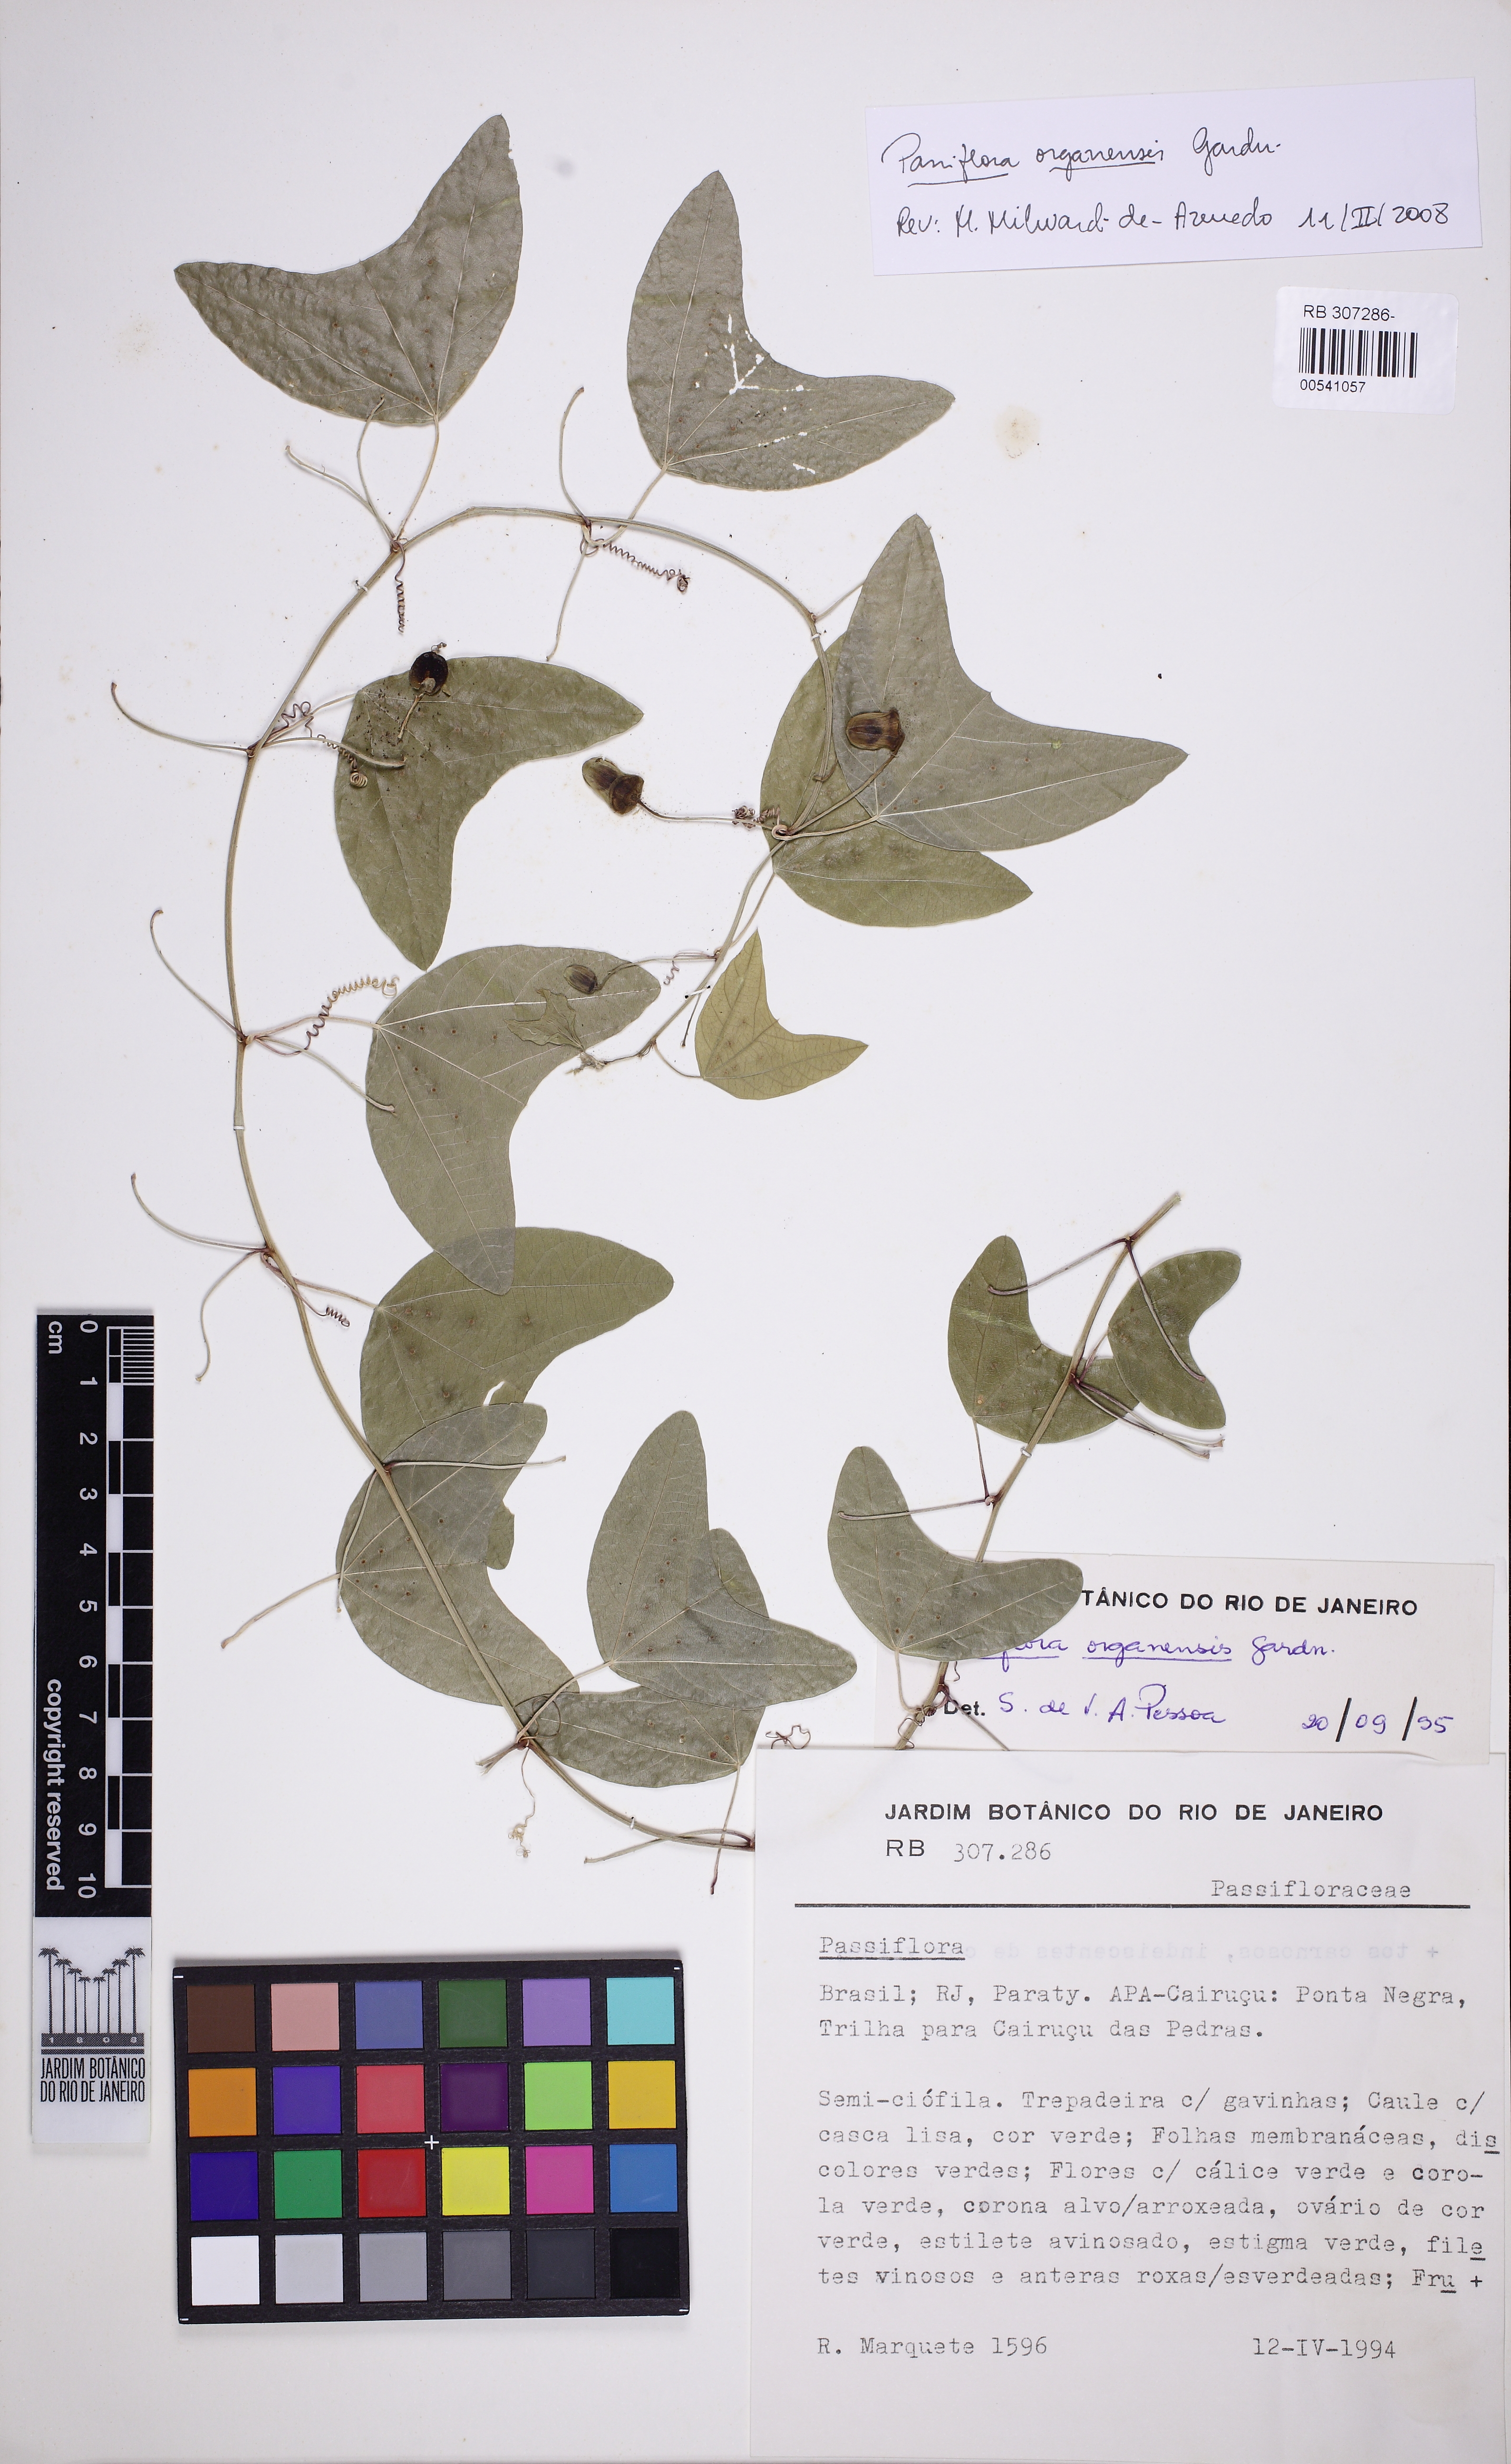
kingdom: Plantae
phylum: Tracheophyta
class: Magnoliopsida
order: Malpighiales
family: Passifloraceae
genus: Passiflora
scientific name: Passiflora porophylla
